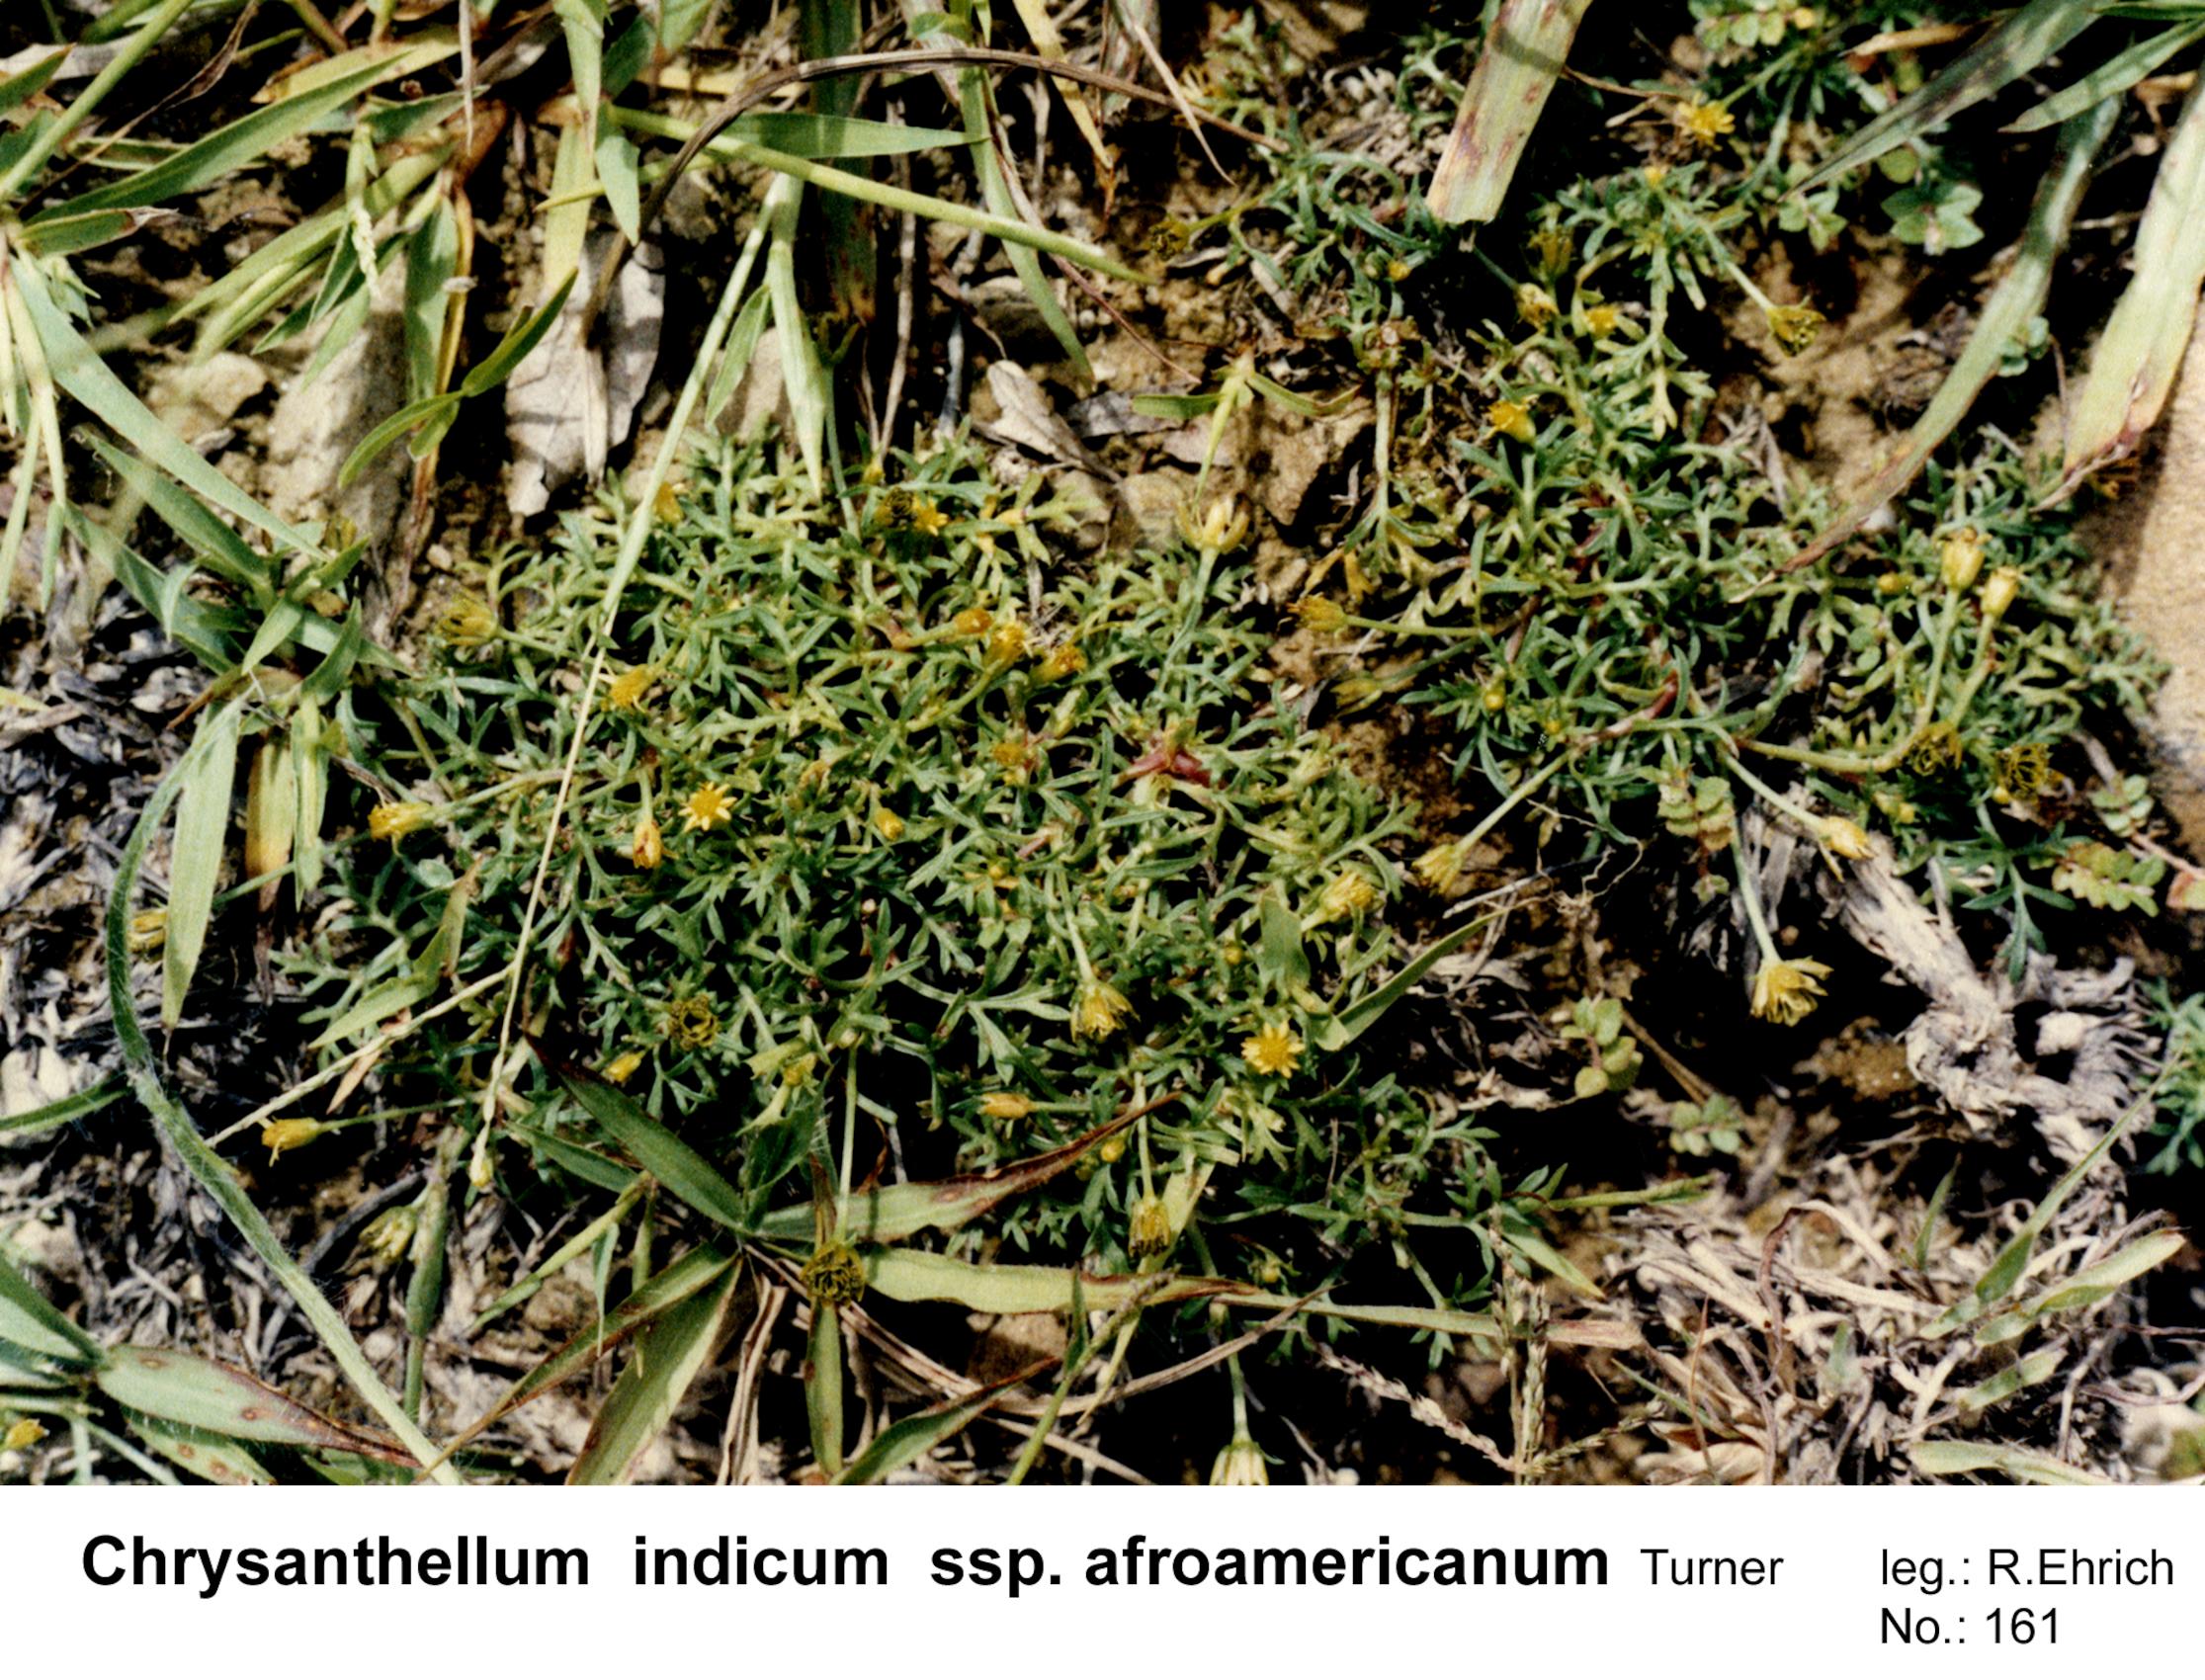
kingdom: Plantae
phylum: Tracheophyta
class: Magnoliopsida
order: Asterales
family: Asteraceae
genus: Chrysanthellum
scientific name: Chrysanthellum indicum
